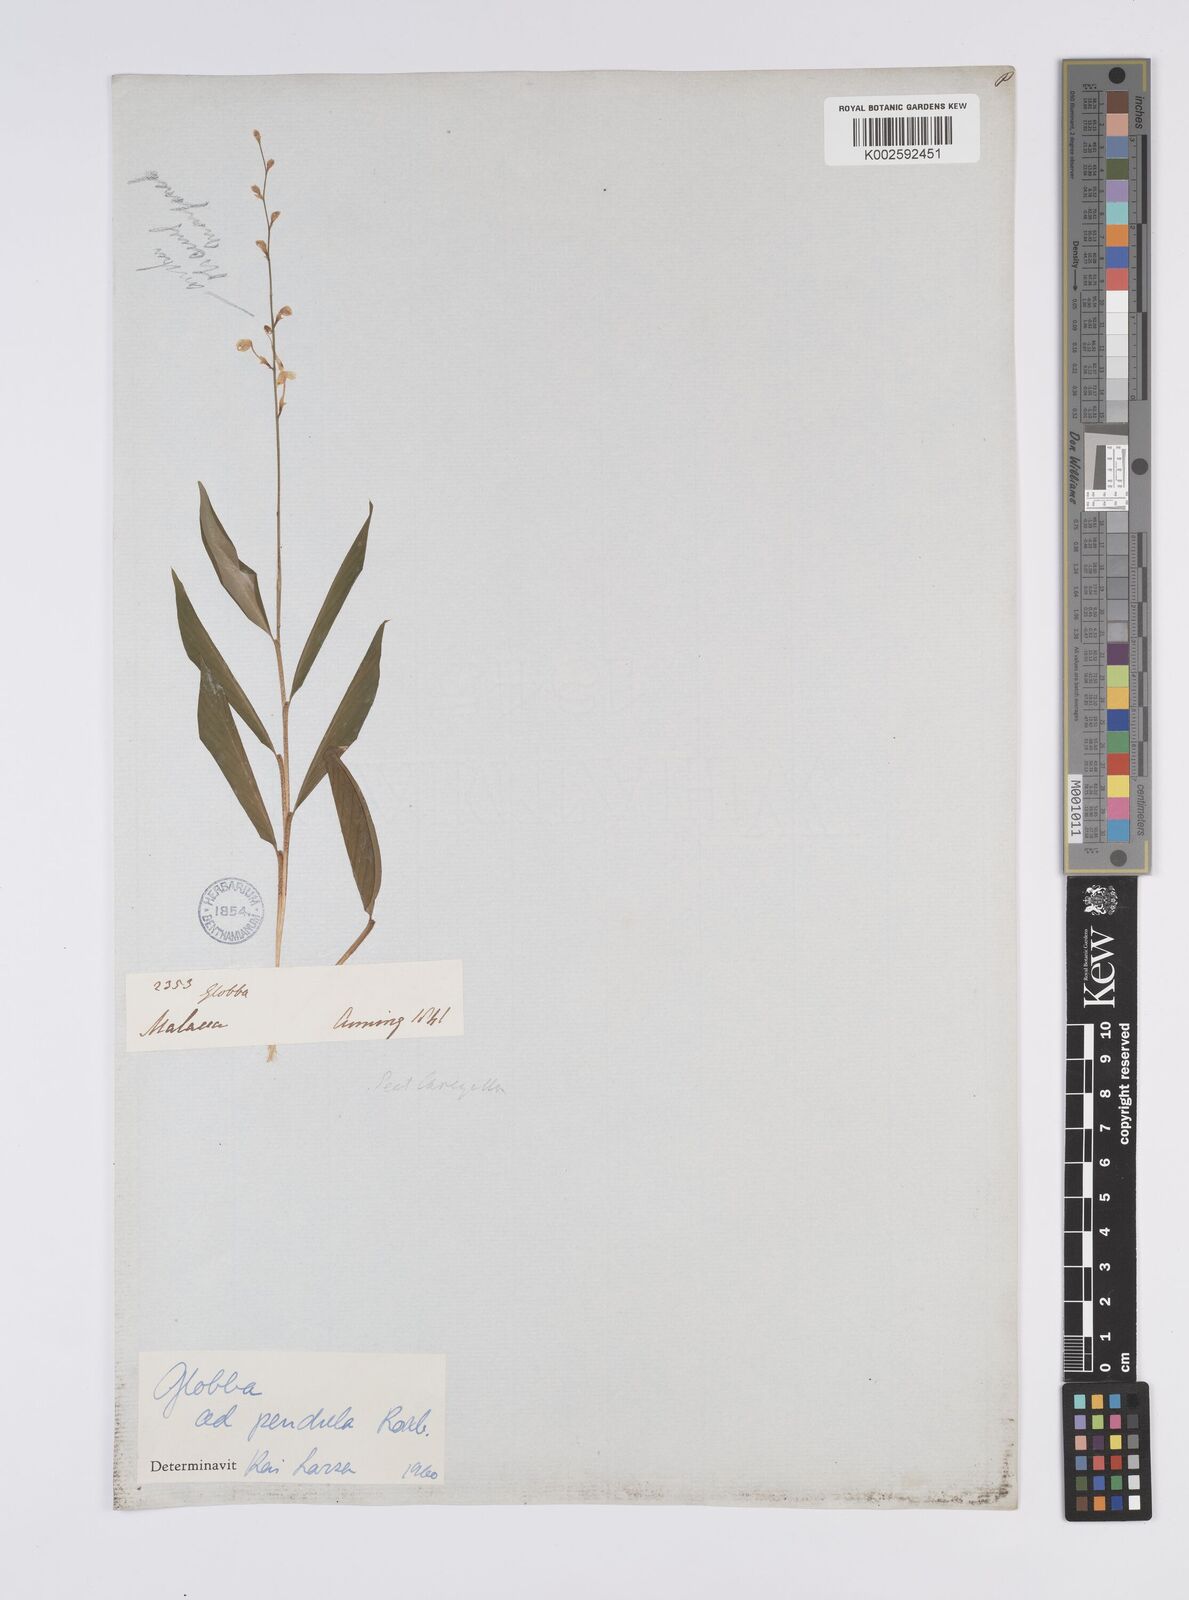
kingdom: Plantae
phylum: Tracheophyta
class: Liliopsida
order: Zingiberales
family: Zingiberaceae
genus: Globba
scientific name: Globba pendula
